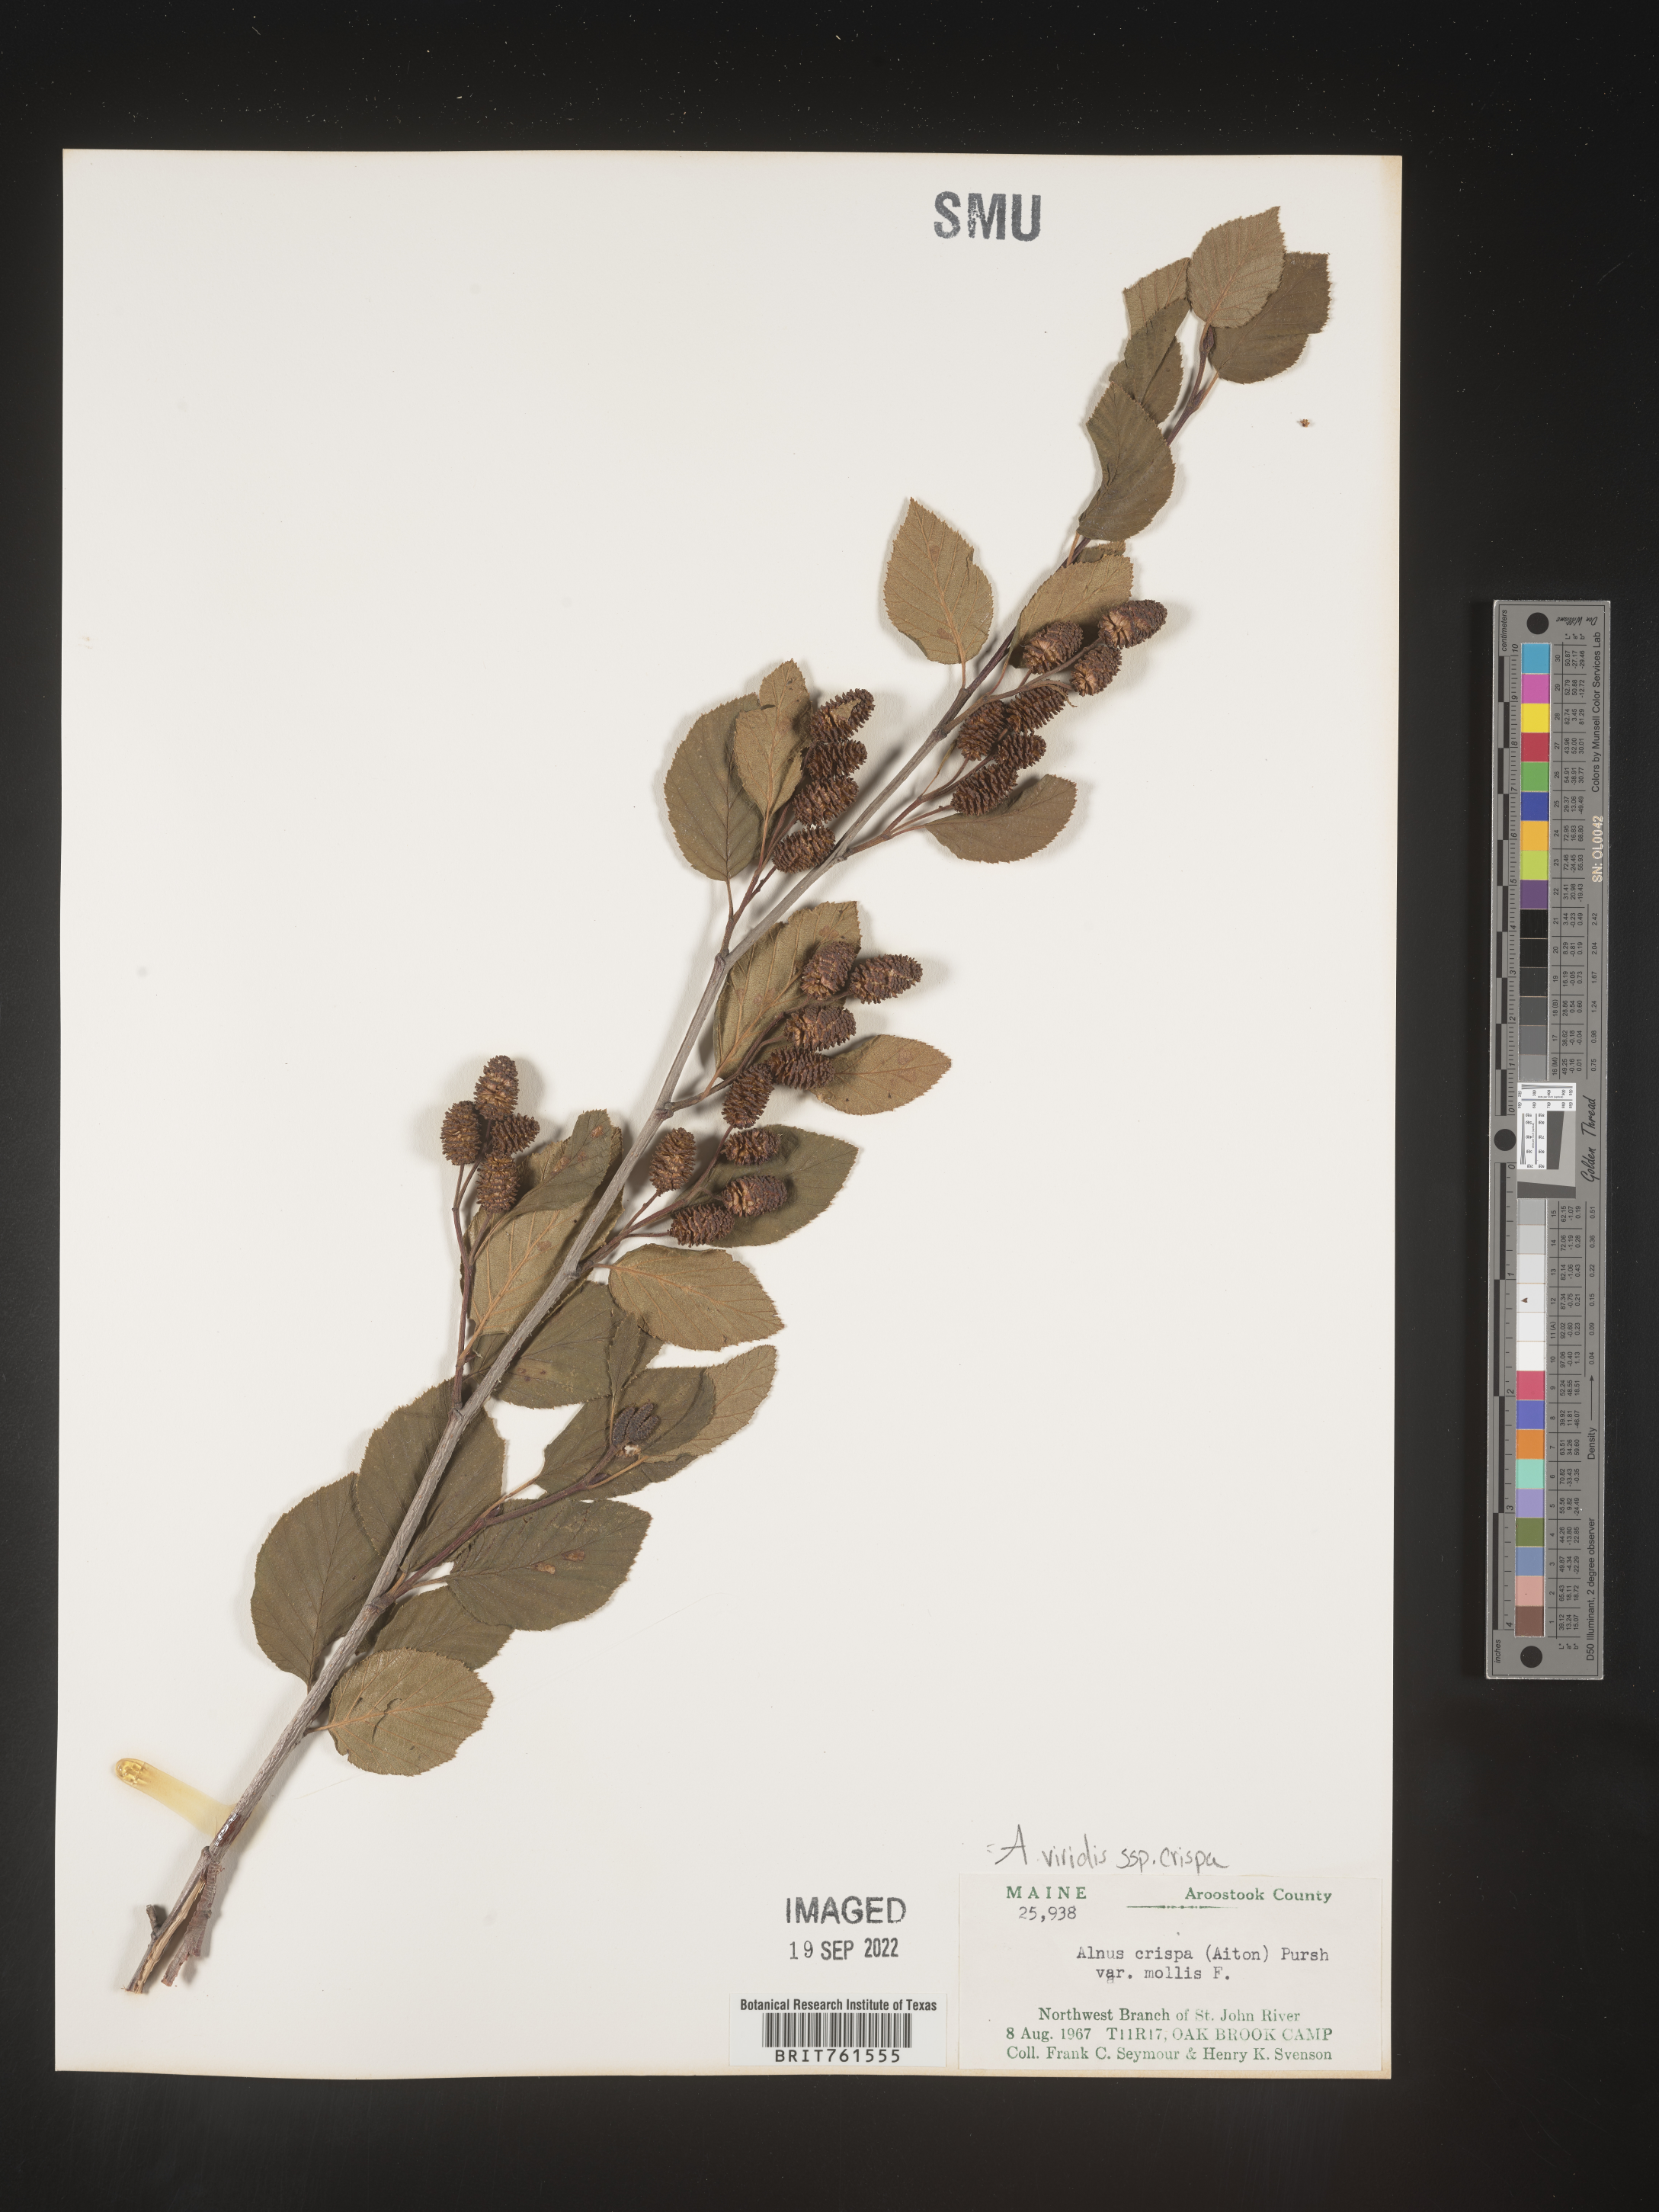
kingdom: Plantae
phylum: Tracheophyta
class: Magnoliopsida
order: Fagales
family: Betulaceae
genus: Alnus
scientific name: Alnus alnobetula
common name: Green alder
